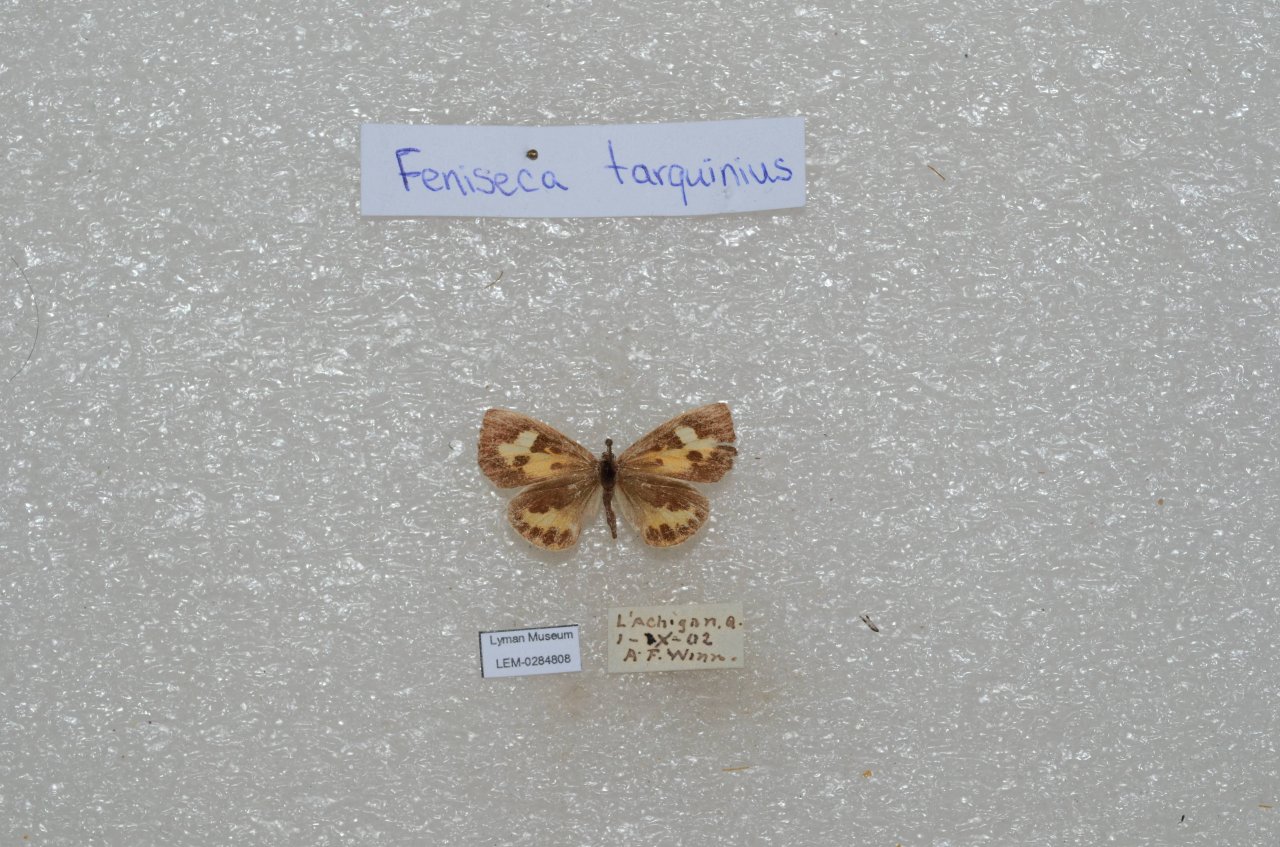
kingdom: Animalia
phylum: Arthropoda
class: Insecta
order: Lepidoptera
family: Lycaenidae
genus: Feniseca
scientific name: Feniseca tarquinius
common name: Harvester
